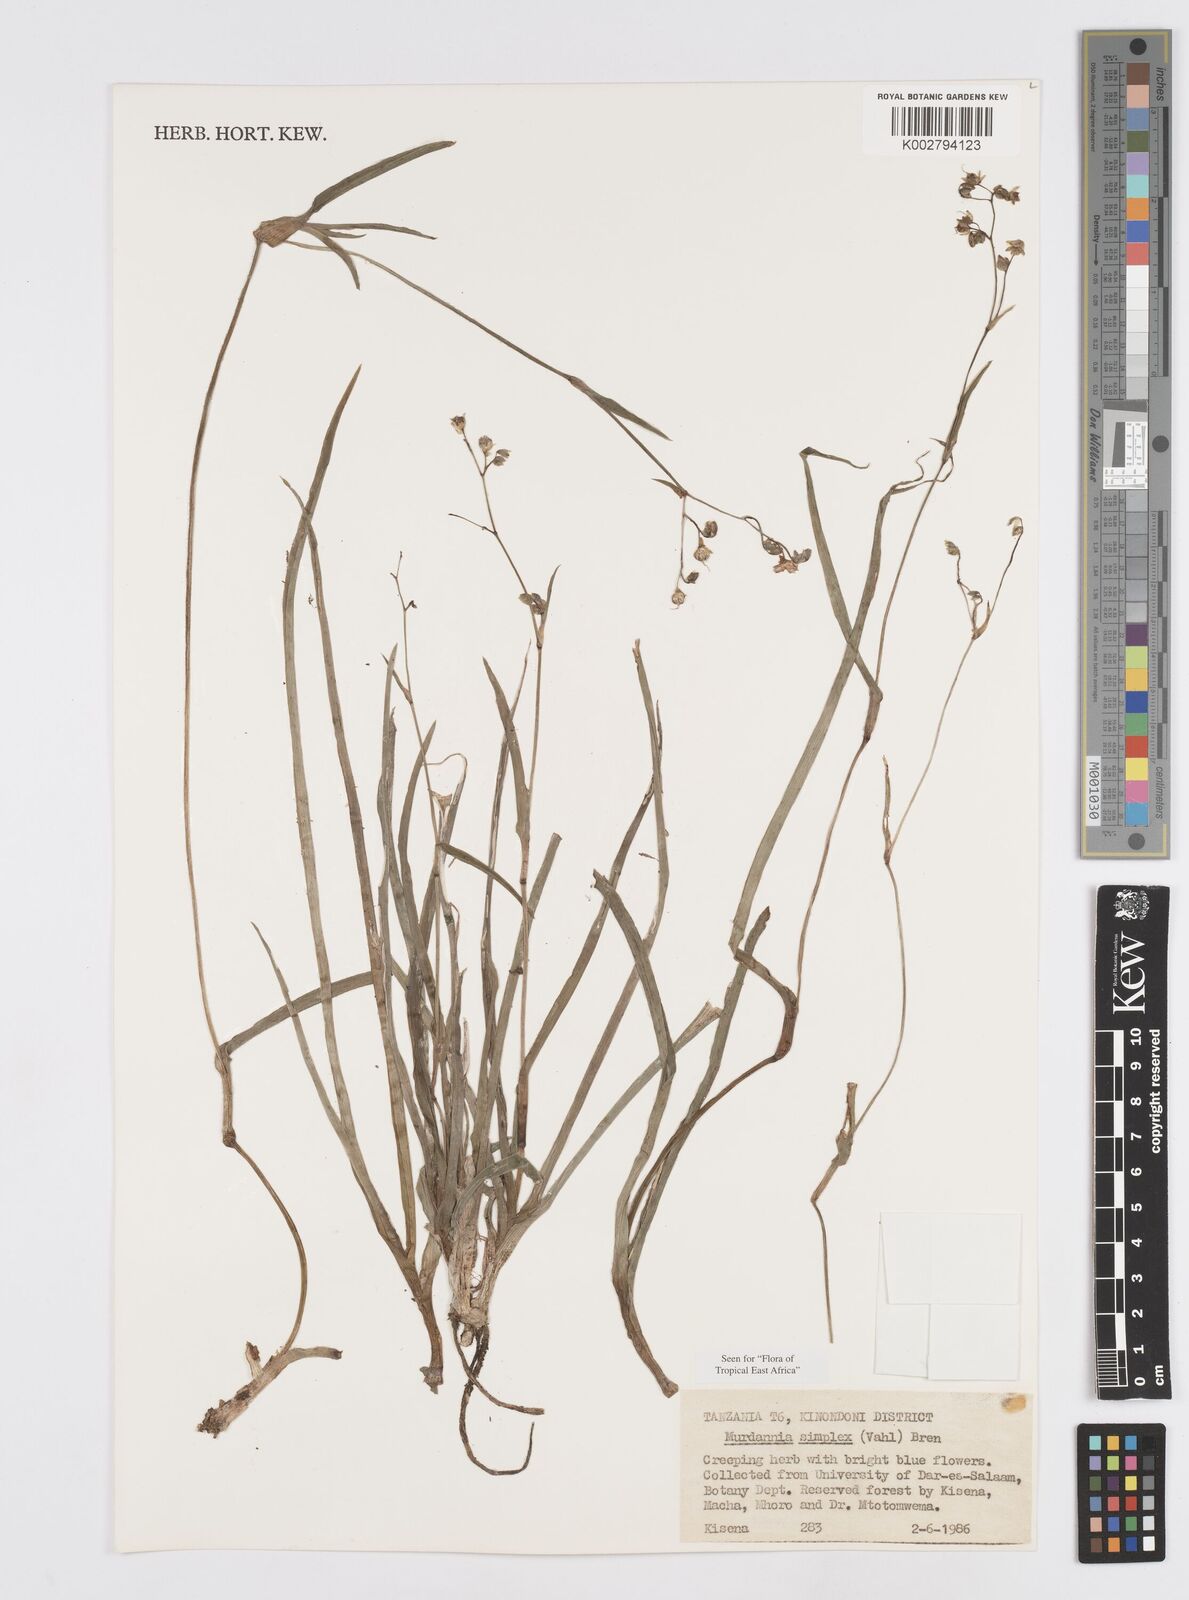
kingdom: Plantae
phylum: Tracheophyta
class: Liliopsida
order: Commelinales
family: Commelinaceae
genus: Murdannia
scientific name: Murdannia simplex
